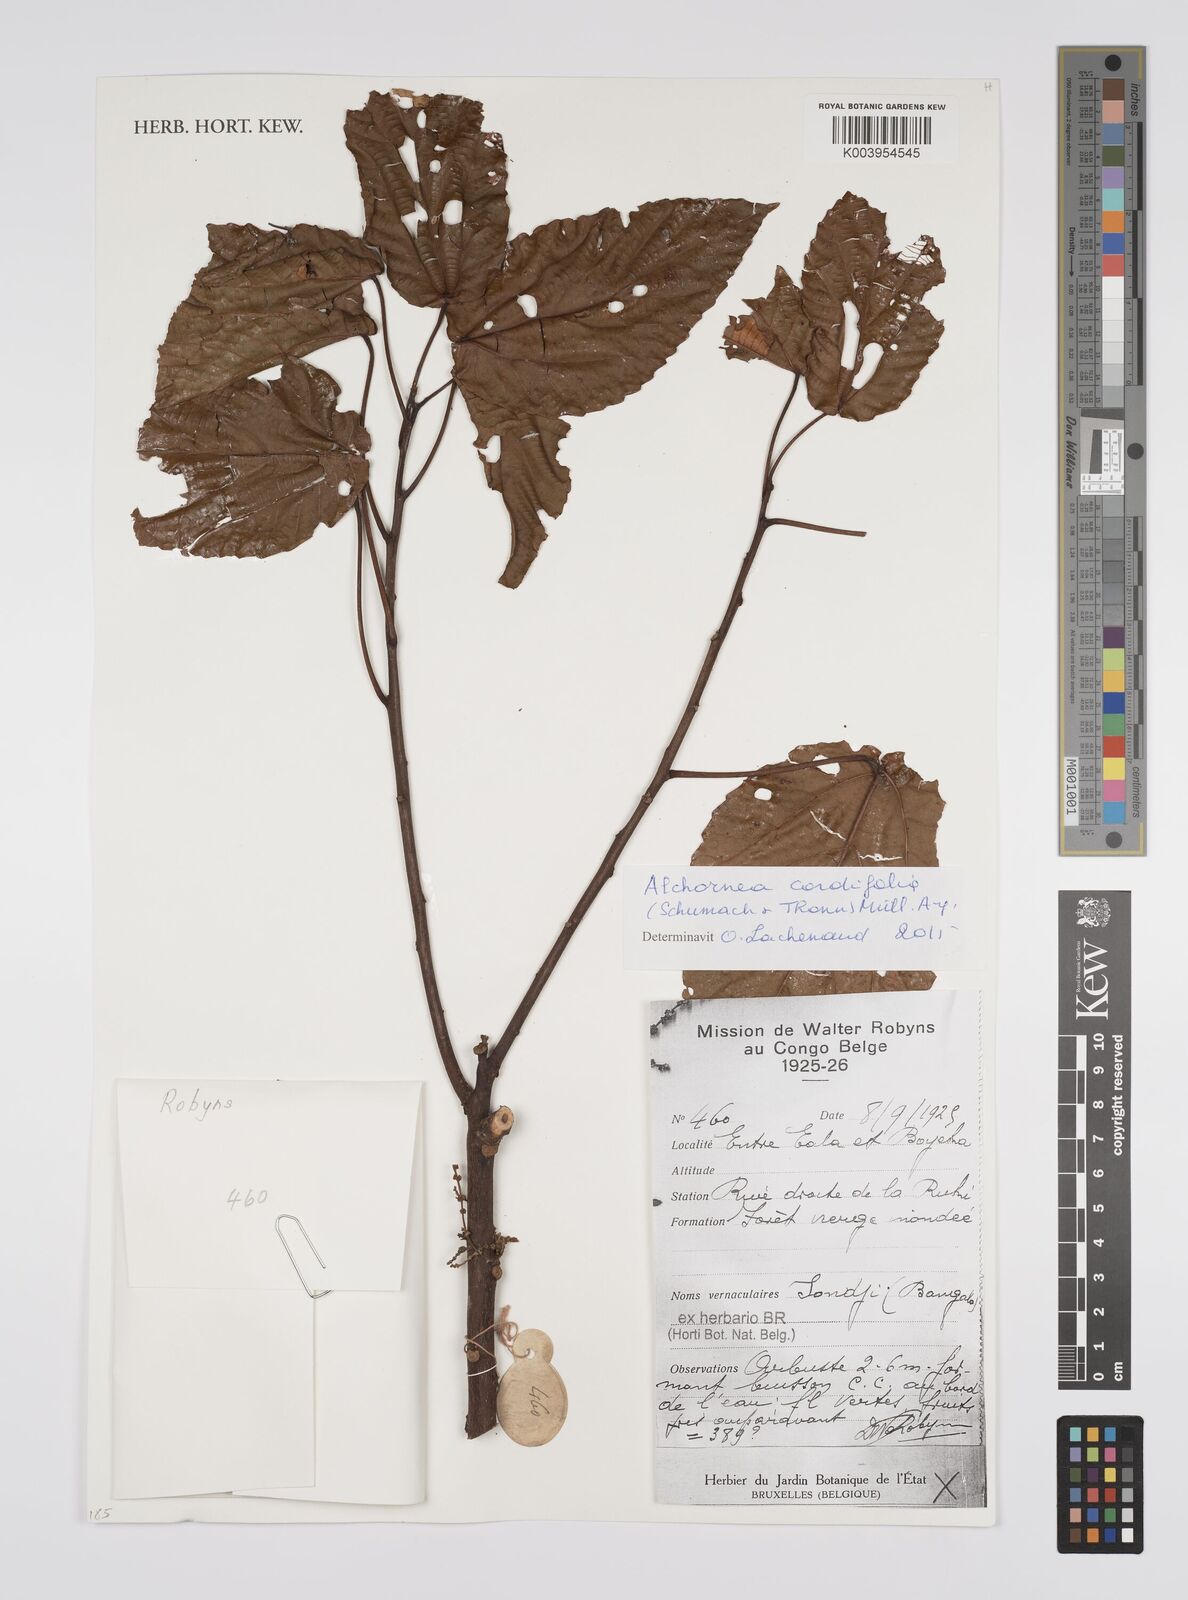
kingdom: Plantae
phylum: Tracheophyta
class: Magnoliopsida
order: Malpighiales
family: Euphorbiaceae
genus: Alchornea
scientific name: Alchornea cordifolia
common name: Christmasbush
